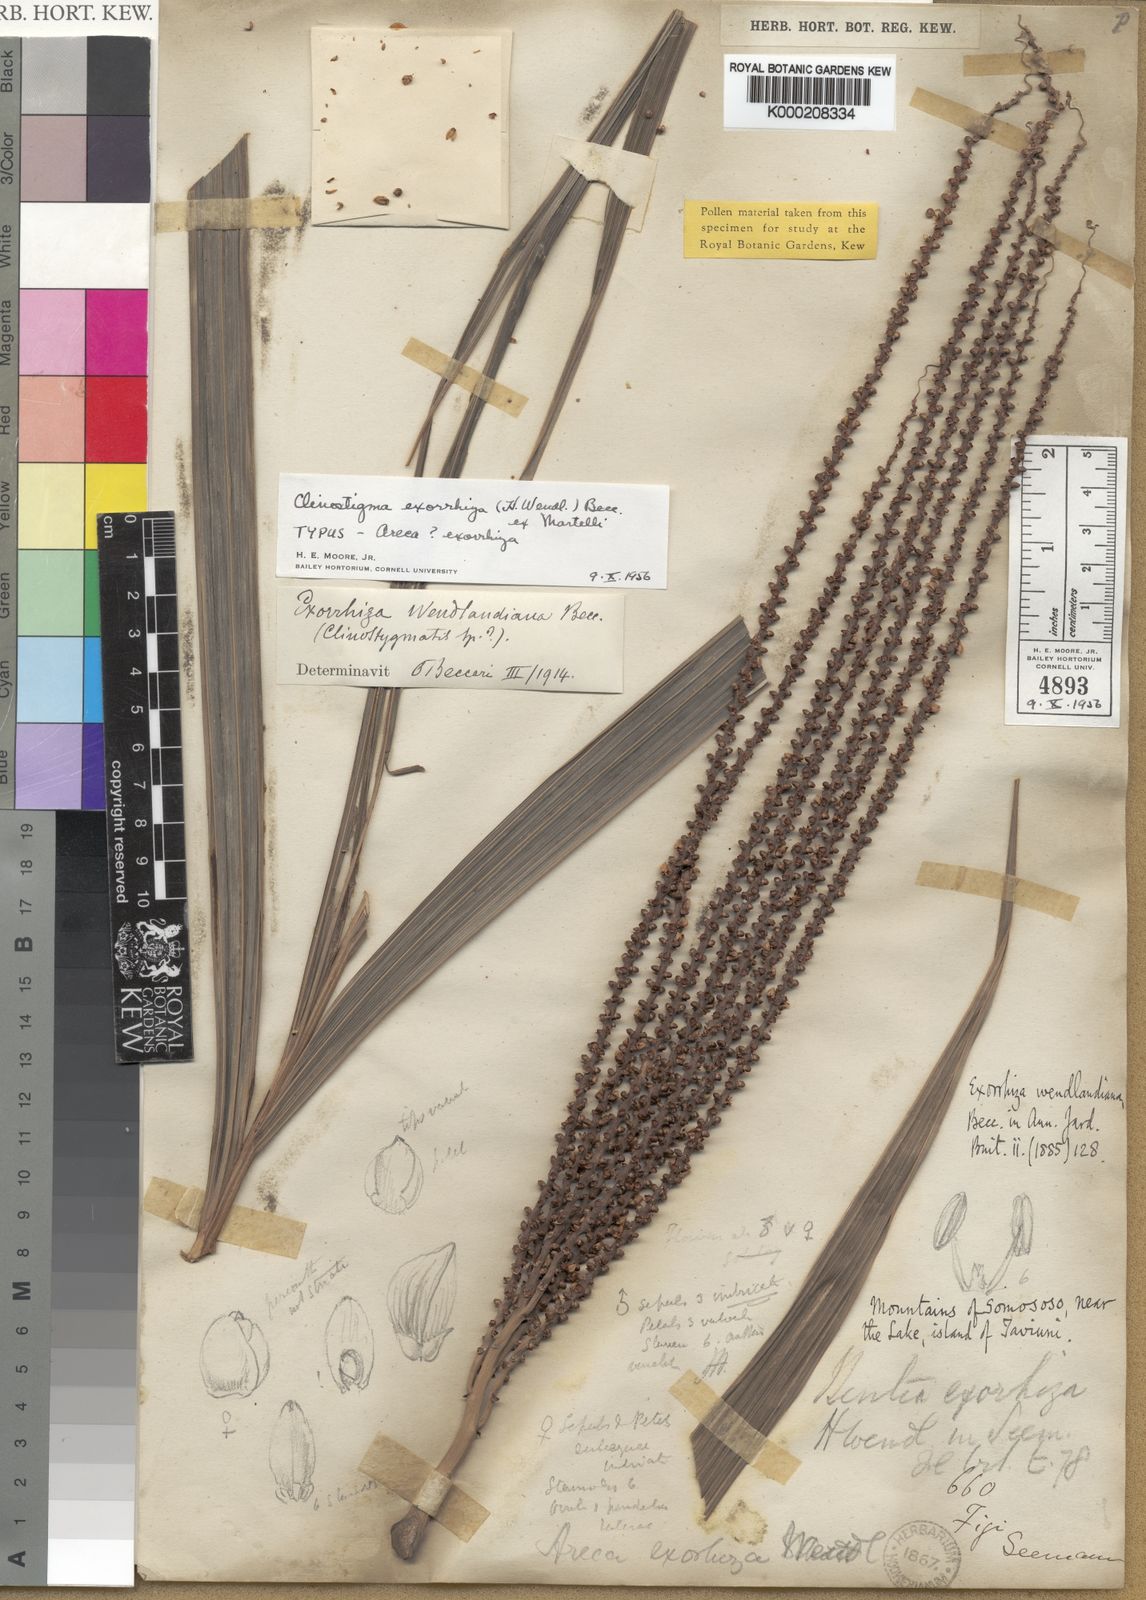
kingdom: Plantae
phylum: Tracheophyta
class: Liliopsida
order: Arecales
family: Arecaceae
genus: Clinostigma
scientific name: Clinostigma haerestigma
